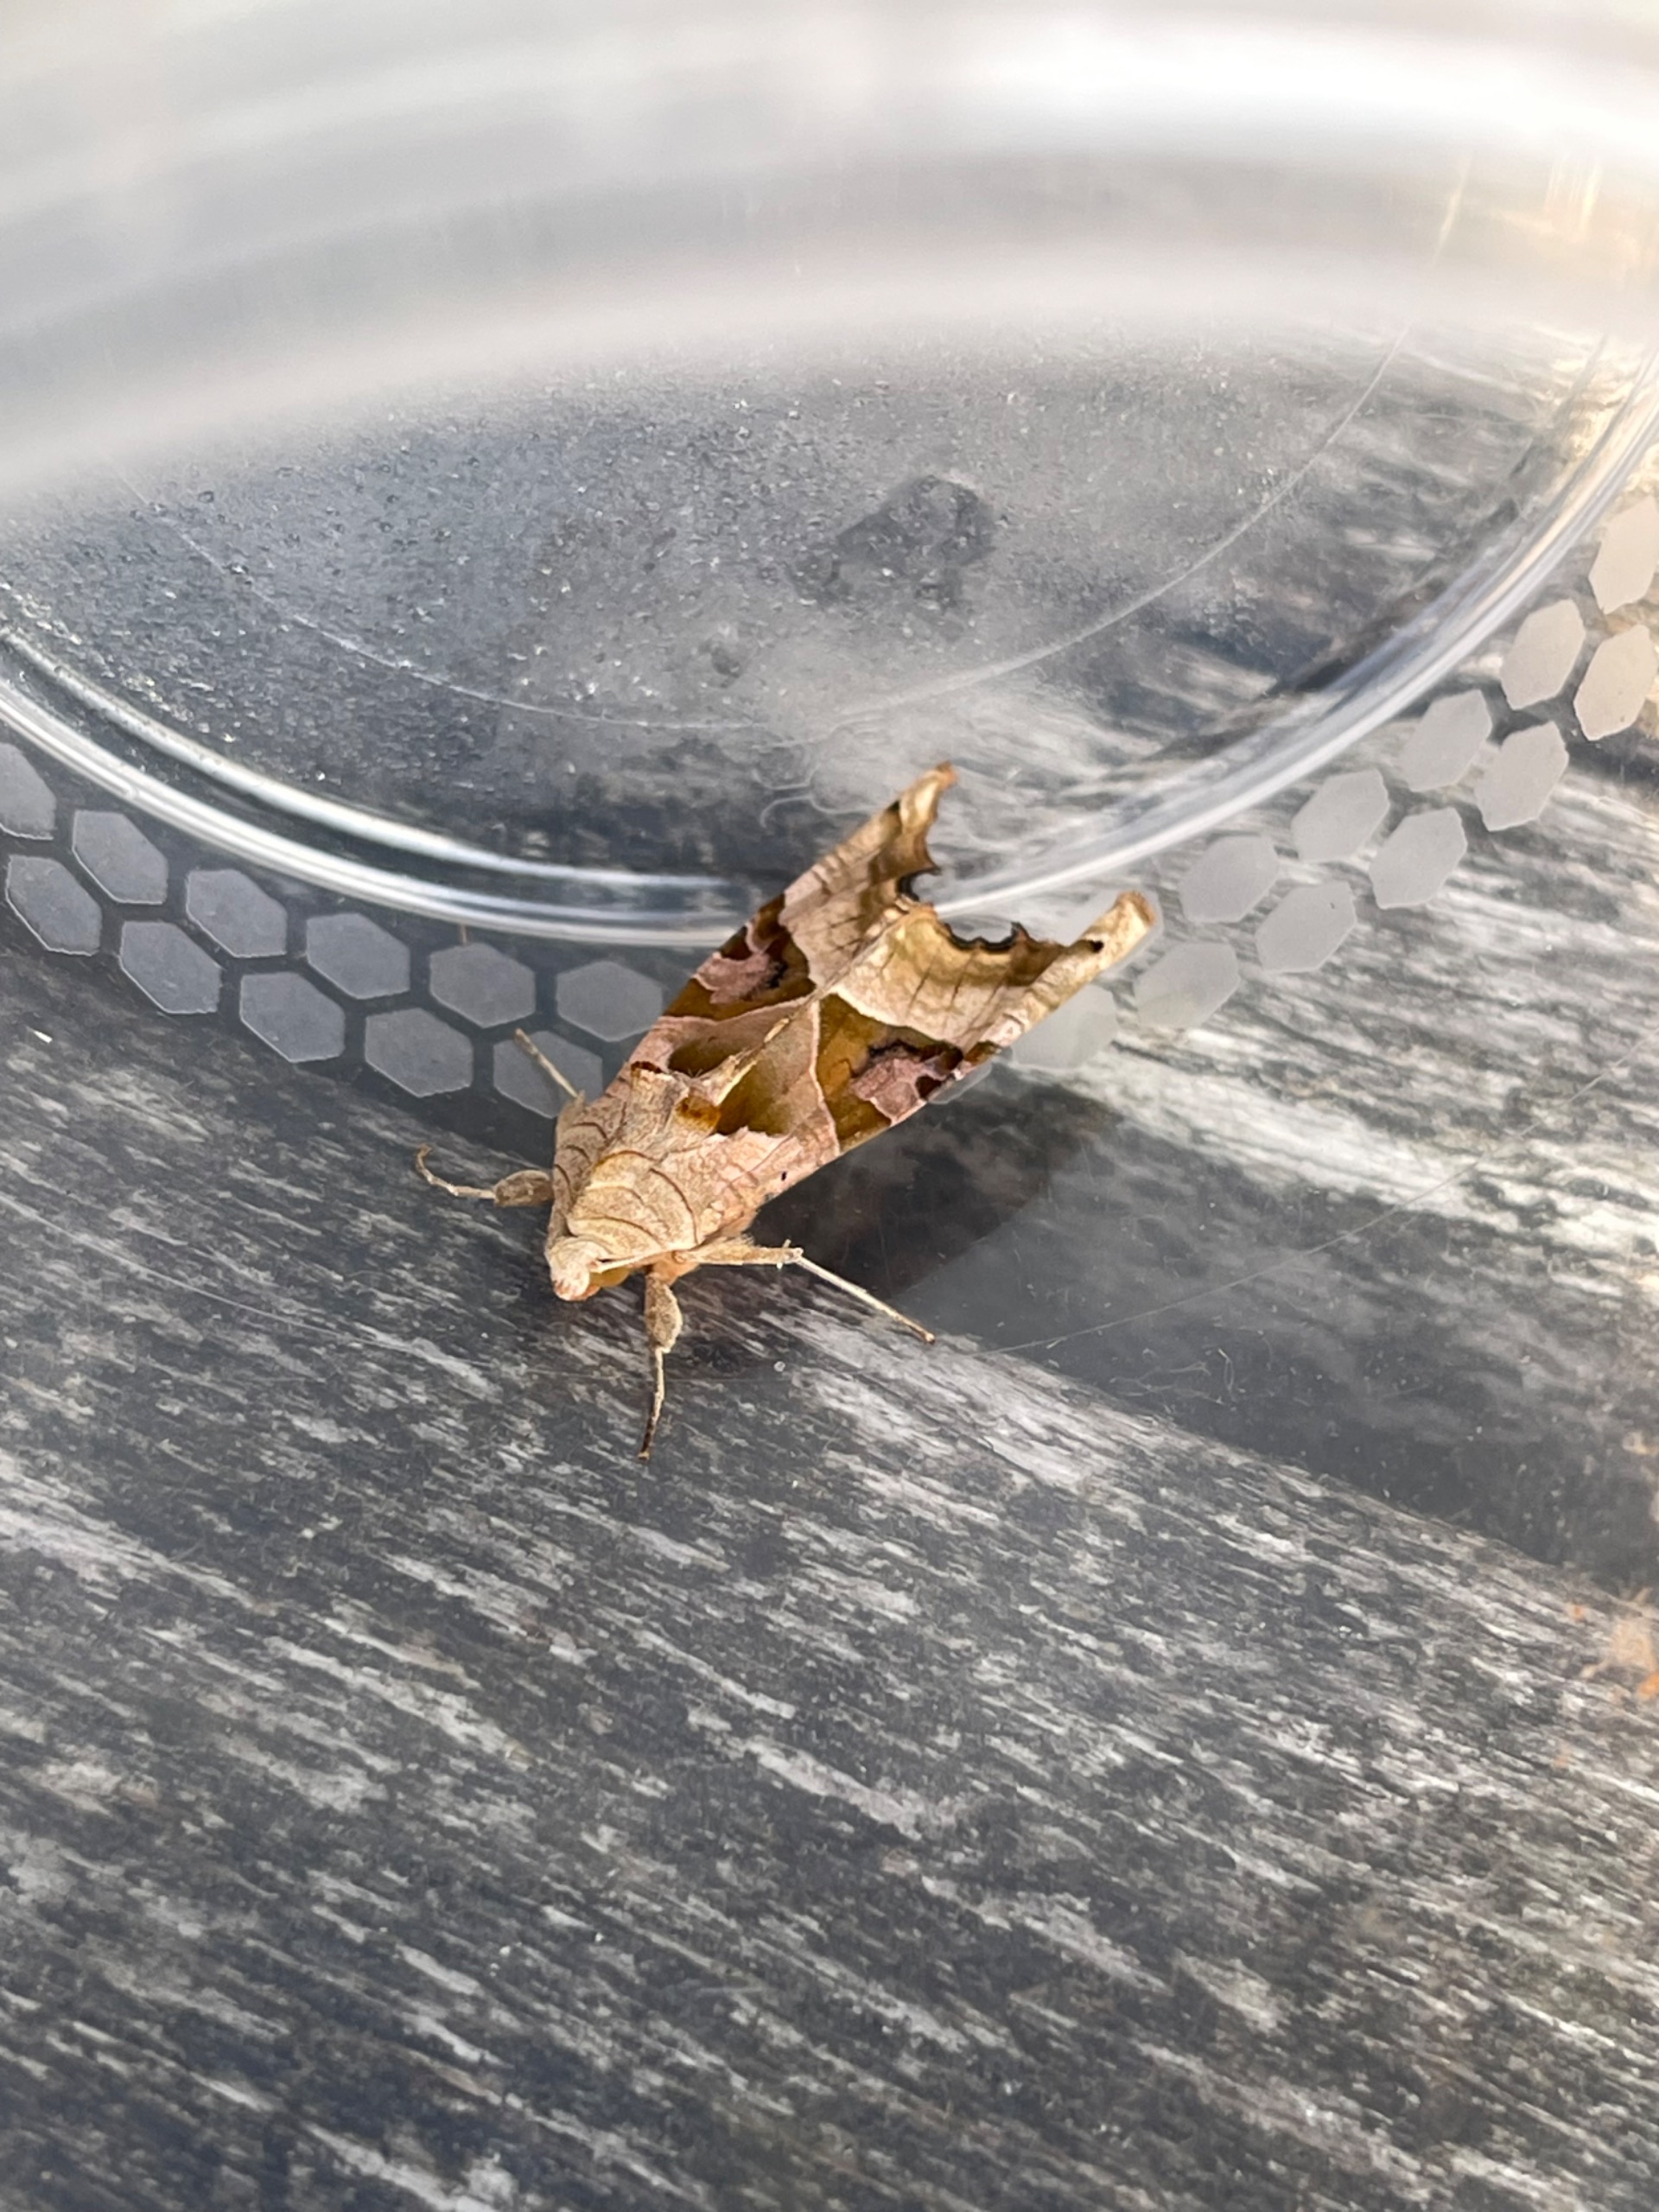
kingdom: Animalia
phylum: Arthropoda
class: Insecta
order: Lepidoptera
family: Noctuidae
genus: Phlogophora
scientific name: Phlogophora meticulosa
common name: Agatugle
